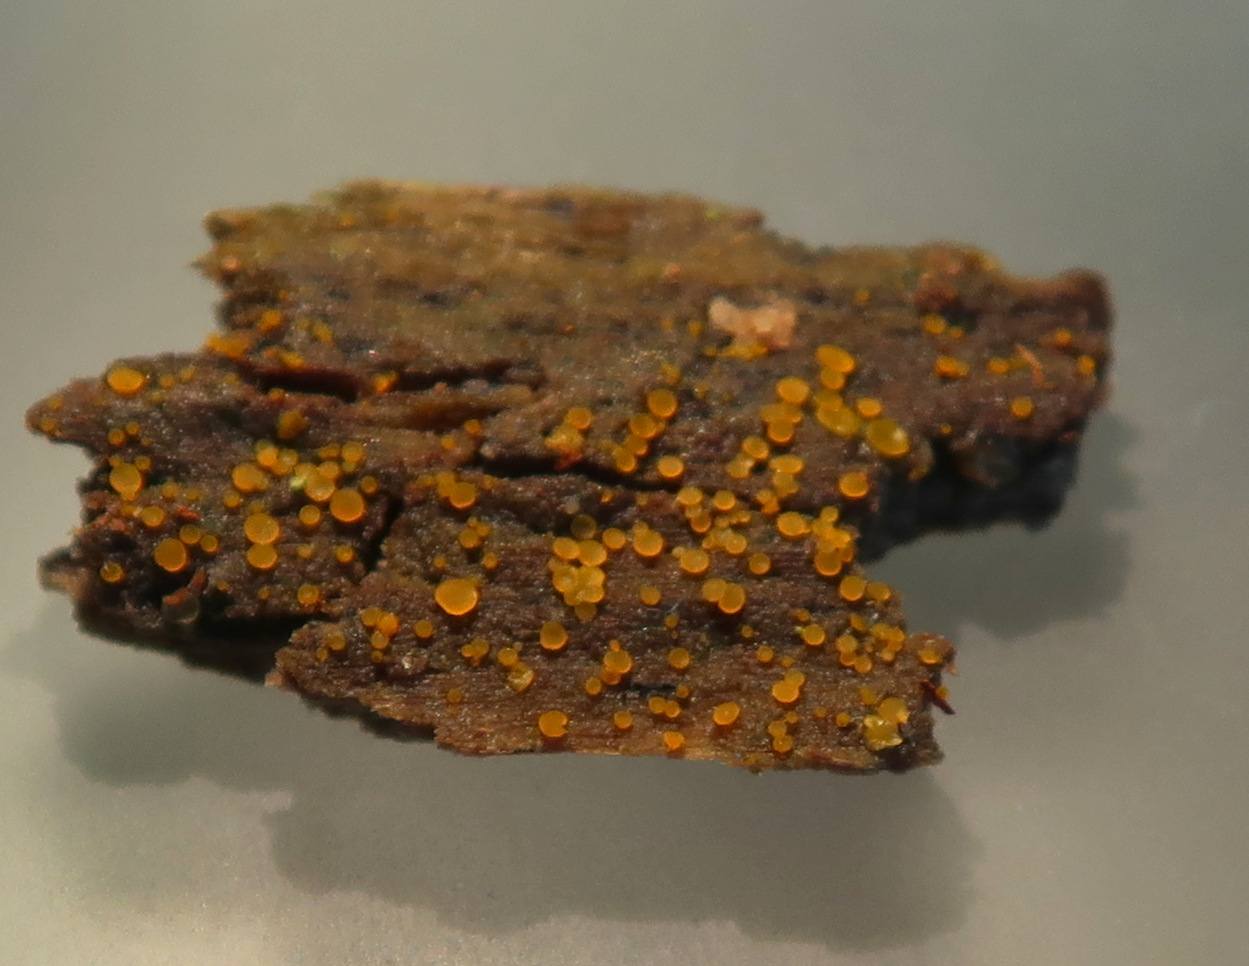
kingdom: Fungi
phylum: Ascomycota
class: Orbiliomycetes
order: Orbiliales
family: Orbiliaceae
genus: Orbilia
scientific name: Orbilia
